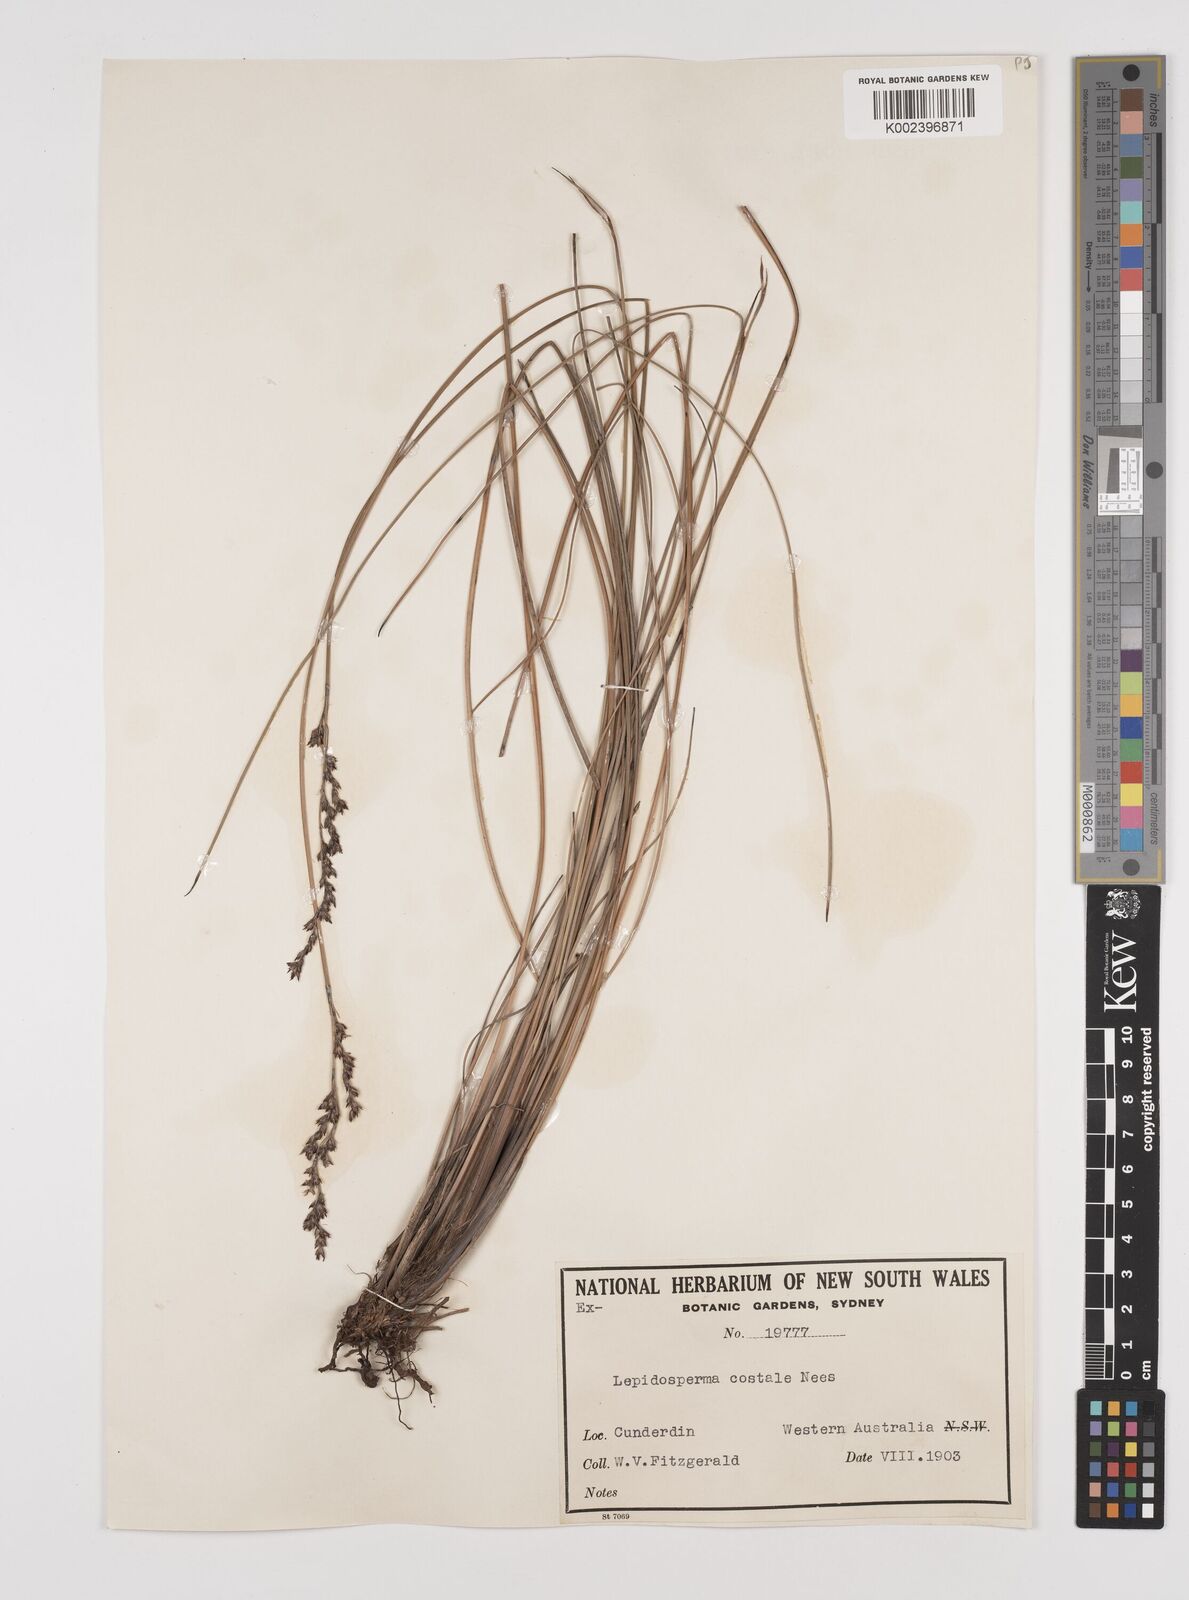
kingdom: Plantae
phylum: Tracheophyta
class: Liliopsida
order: Poales
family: Cyperaceae
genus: Lepidosperma
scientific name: Lepidosperma costale
